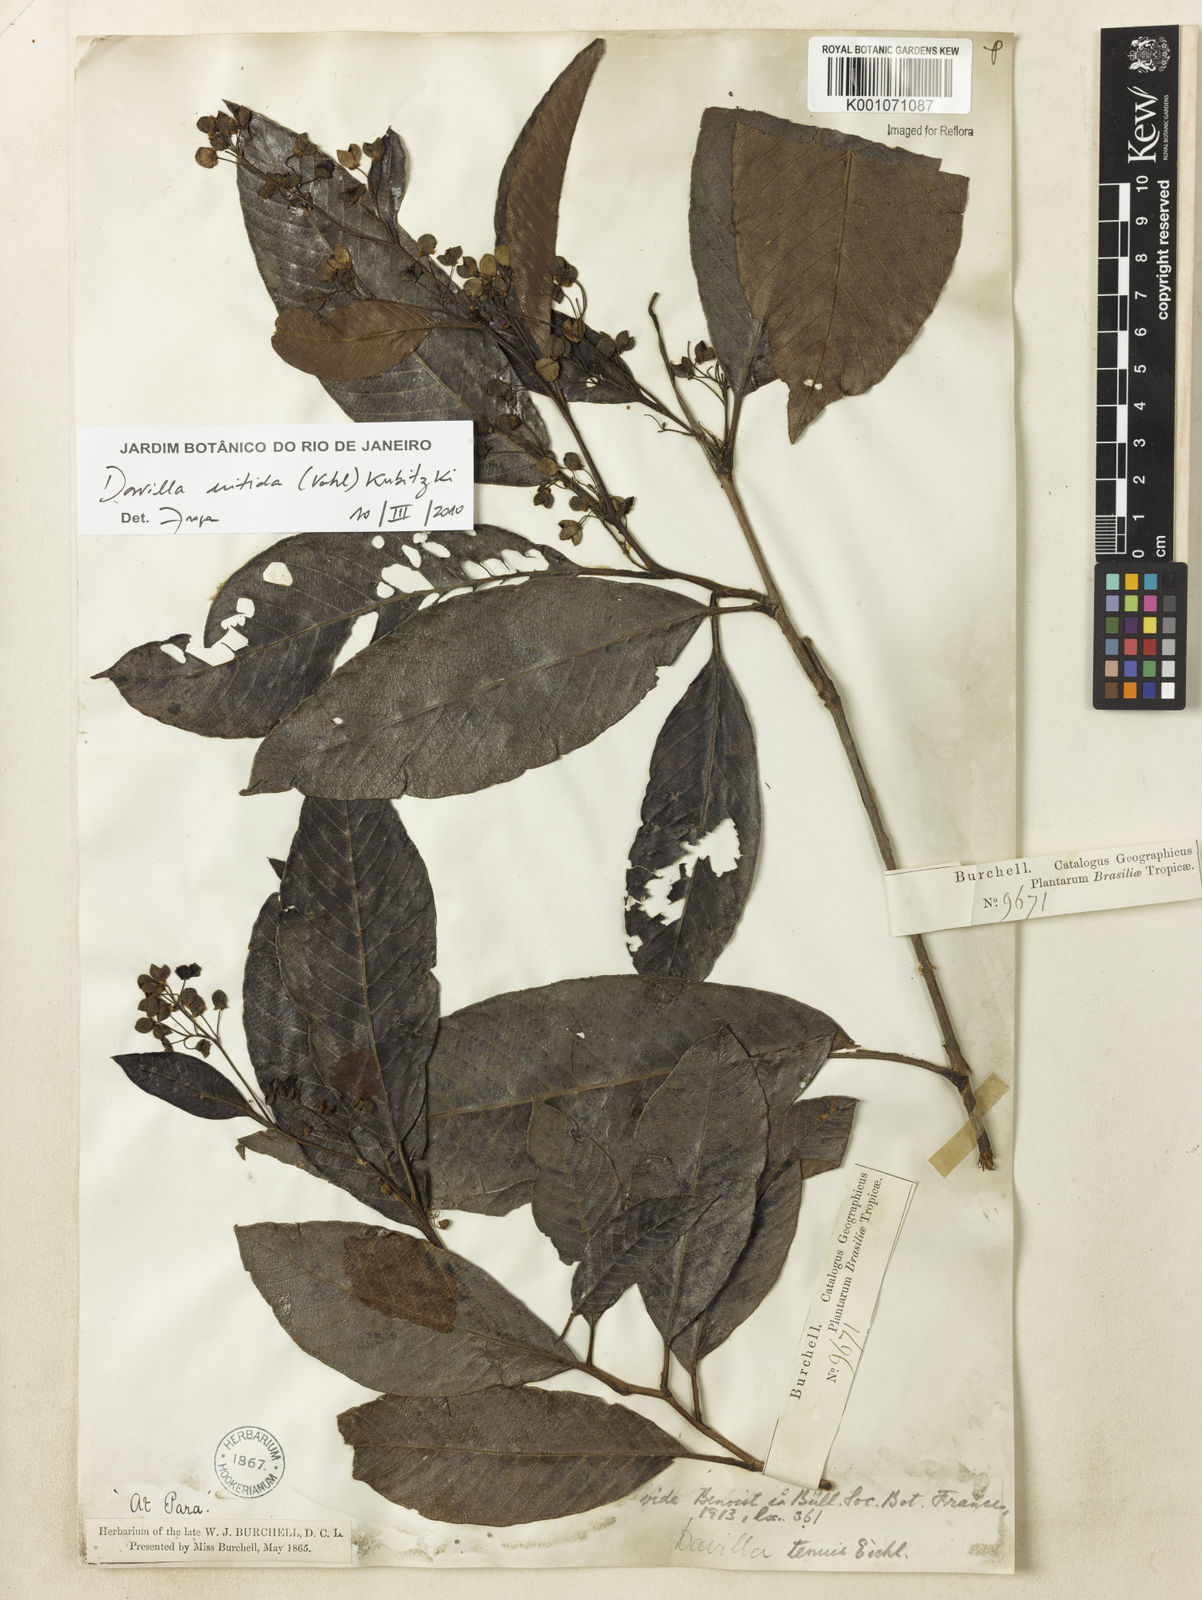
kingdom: Plantae
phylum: Tracheophyta
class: Magnoliopsida
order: Dilleniales
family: Dilleniaceae
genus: Davilla
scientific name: Davilla nitida
